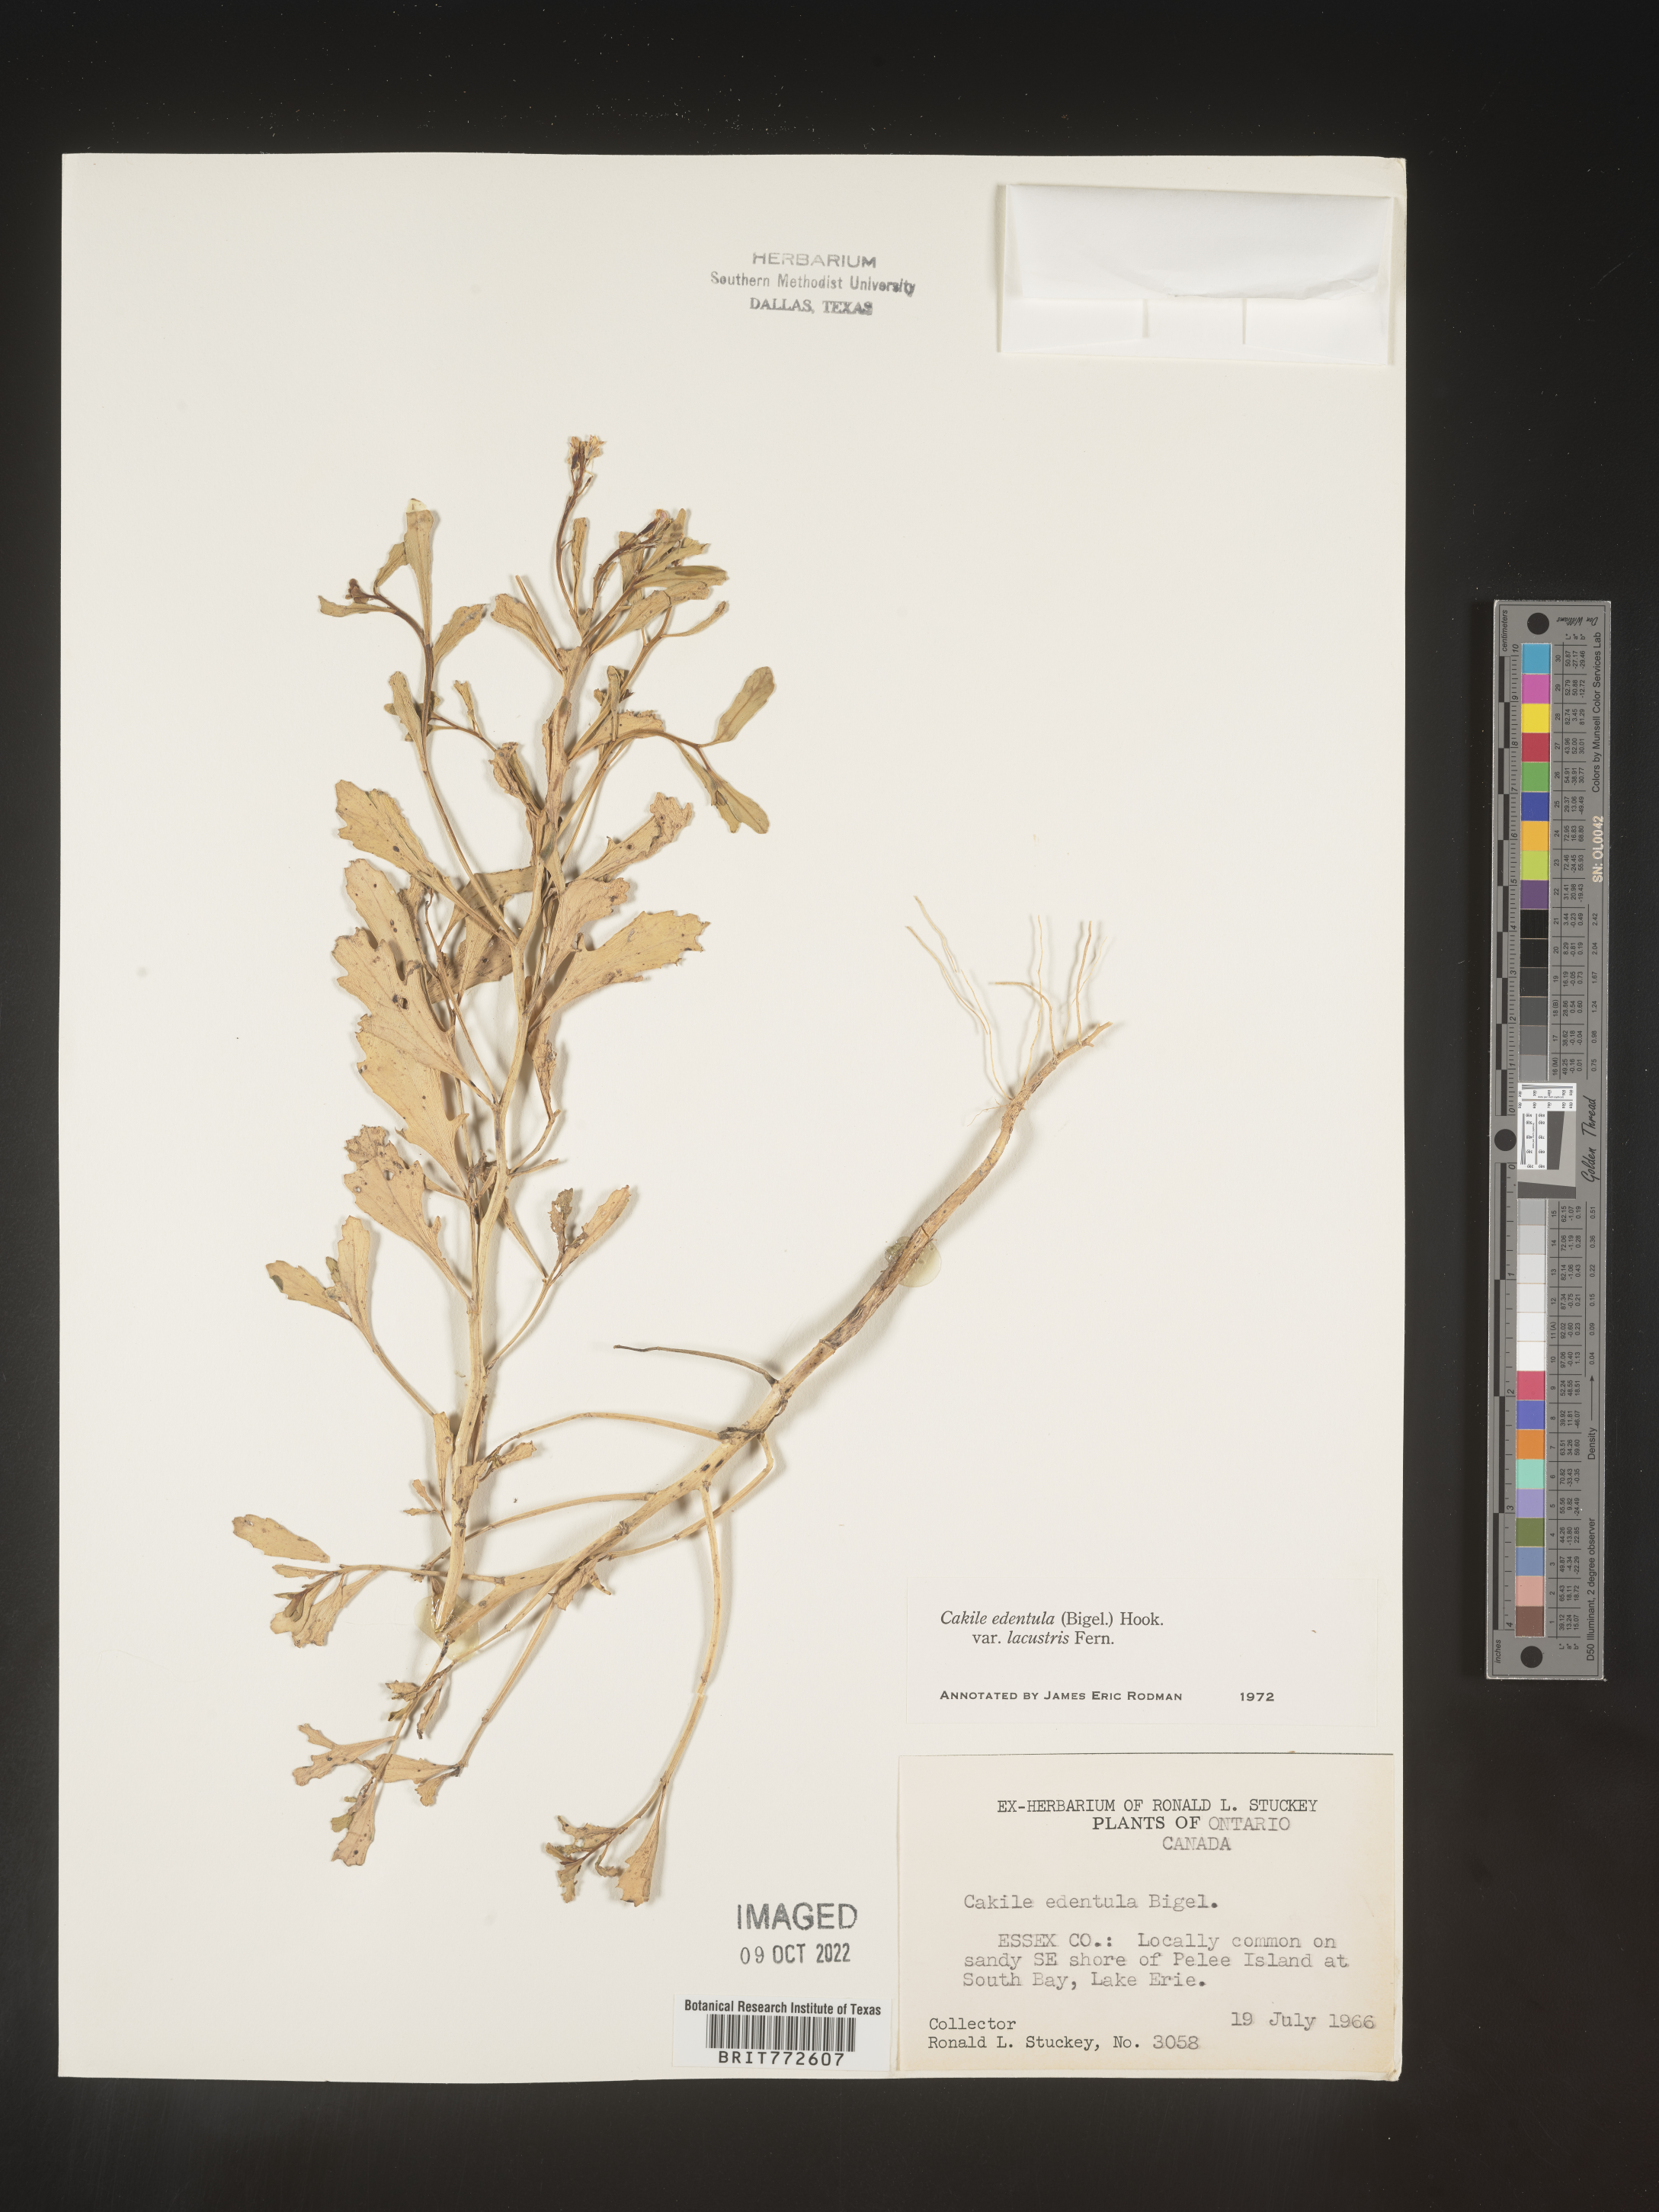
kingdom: Plantae
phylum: Tracheophyta
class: Magnoliopsida
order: Brassicales
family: Brassicaceae
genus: Cakile
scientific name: Cakile edentula
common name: American sea rocket
